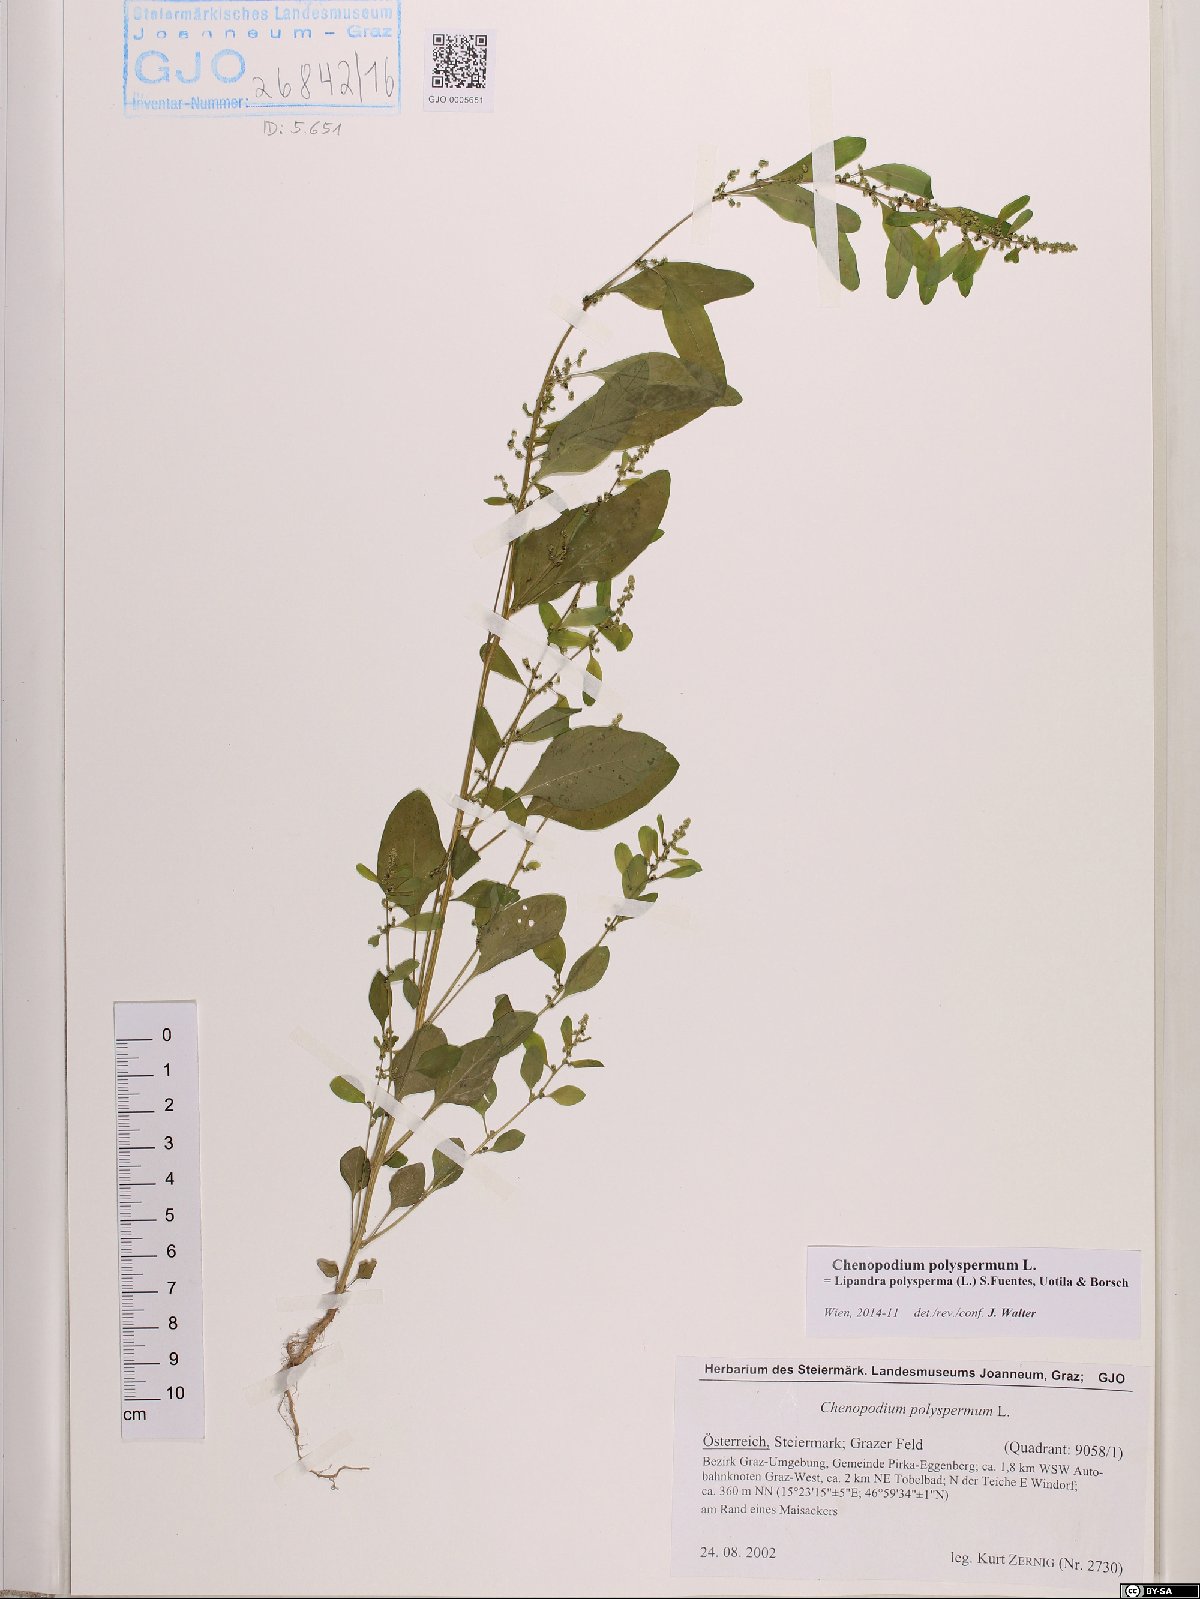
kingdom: Plantae
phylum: Tracheophyta
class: Magnoliopsida
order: Caryophyllales
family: Amaranthaceae
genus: Lipandra
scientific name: Lipandra polysperma
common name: Many-seed goosefoot
